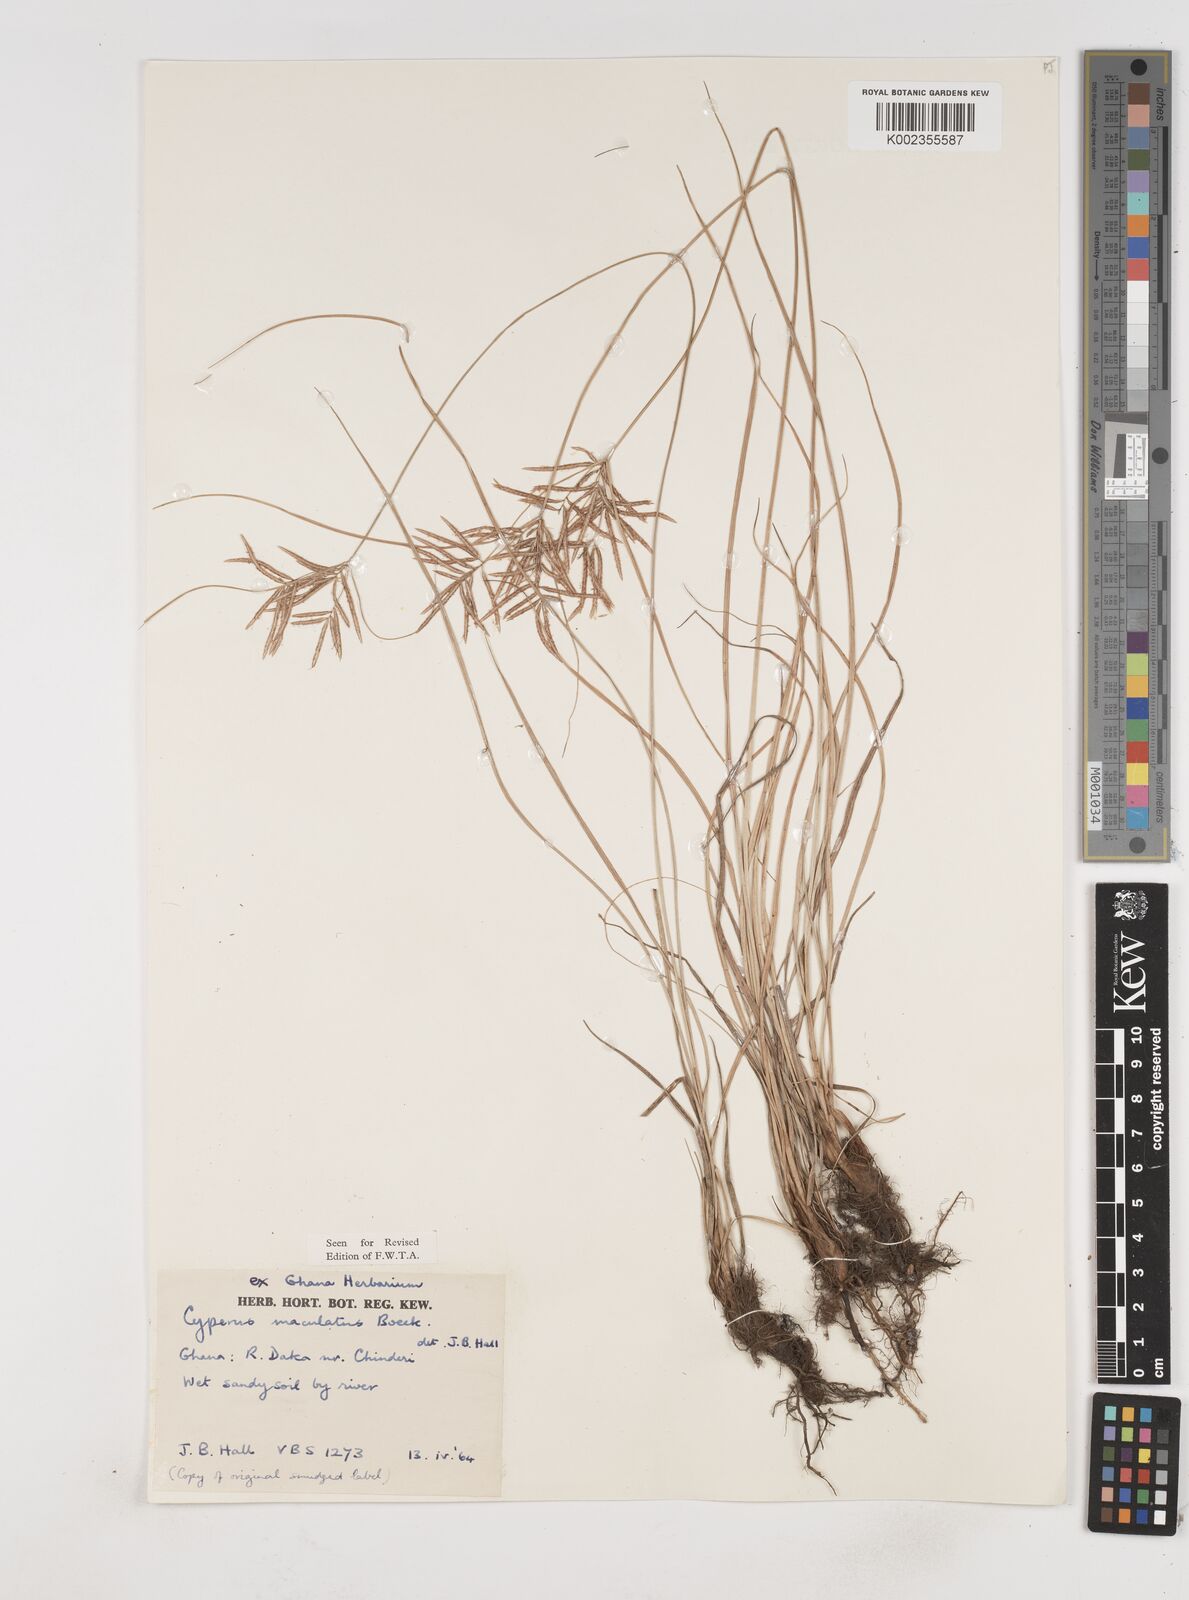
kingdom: Plantae
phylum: Tracheophyta
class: Liliopsida
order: Poales
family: Cyperaceae
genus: Cyperus
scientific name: Cyperus maculatus
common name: Maculated sedge
